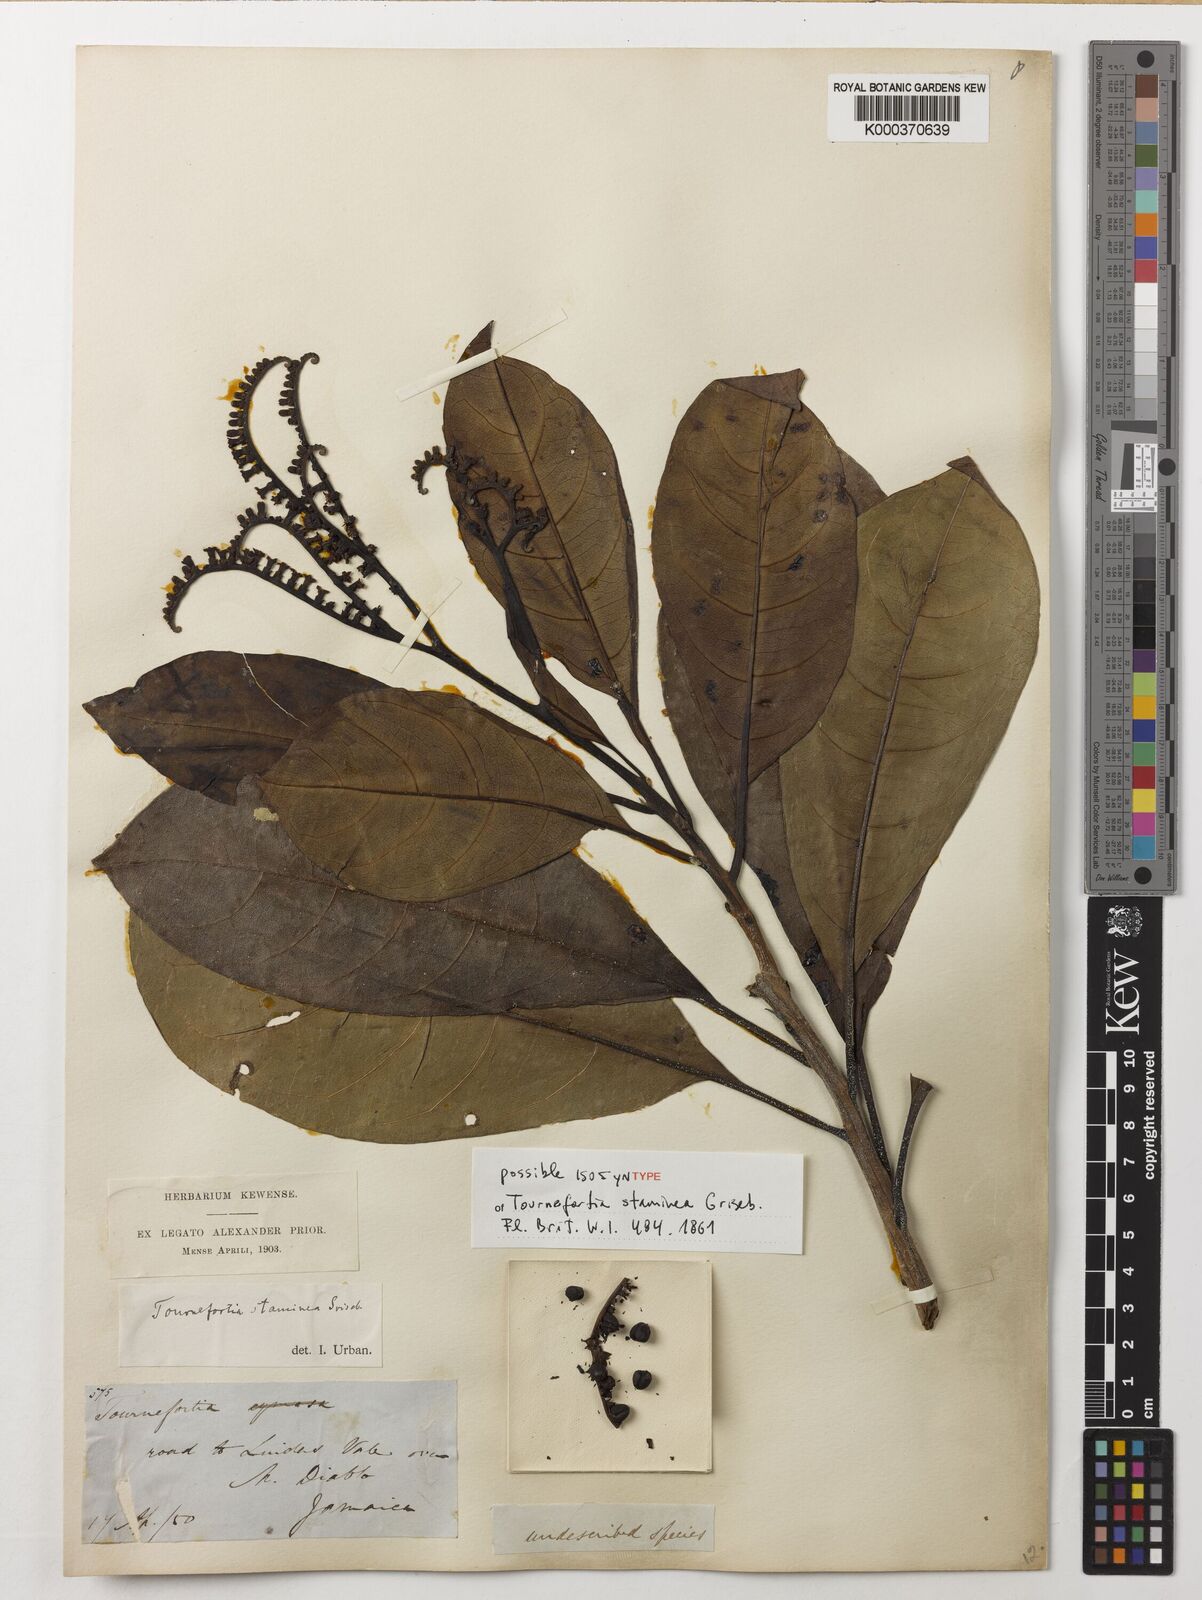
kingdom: Plantae
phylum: Tracheophyta
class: Magnoliopsida
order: Boraginales
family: Heliotropiaceae
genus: Heliotropium
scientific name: Heliotropium stamineum
